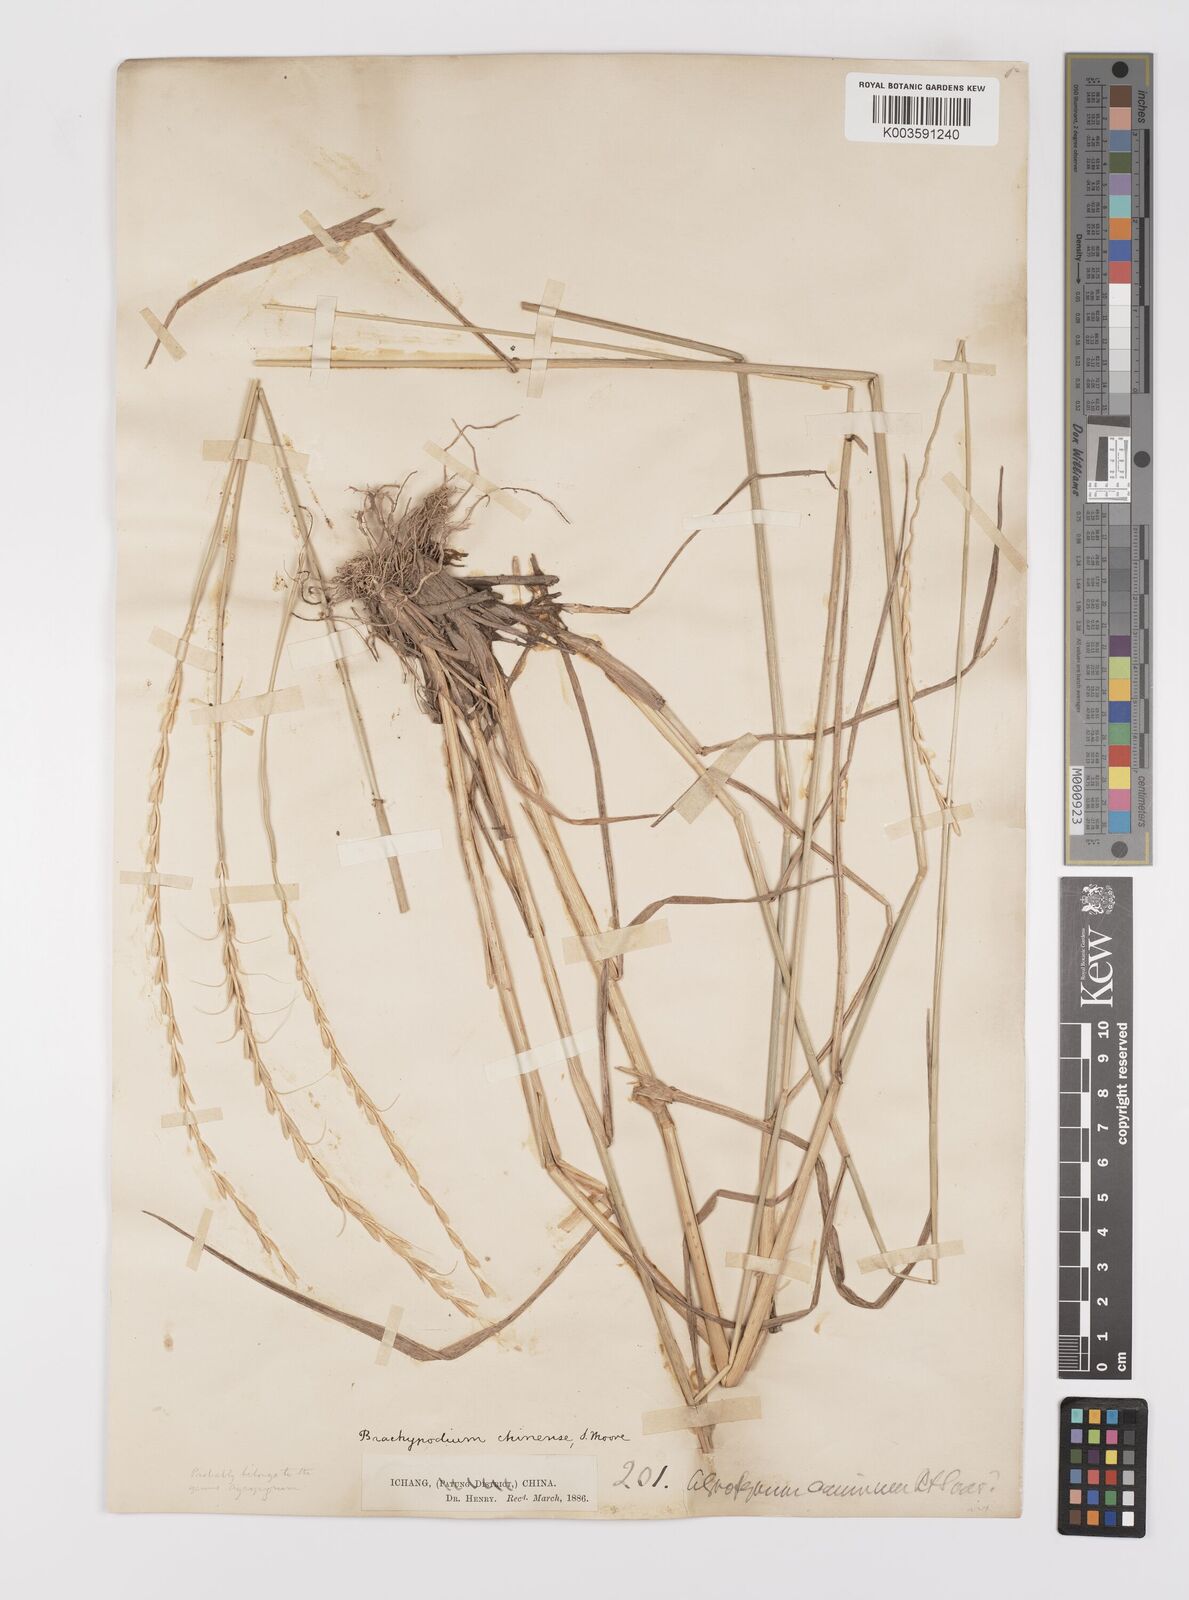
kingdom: Plantae
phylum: Tracheophyta
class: Liliopsida
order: Poales
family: Poaceae
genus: Leymus
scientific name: Leymus chinensis
